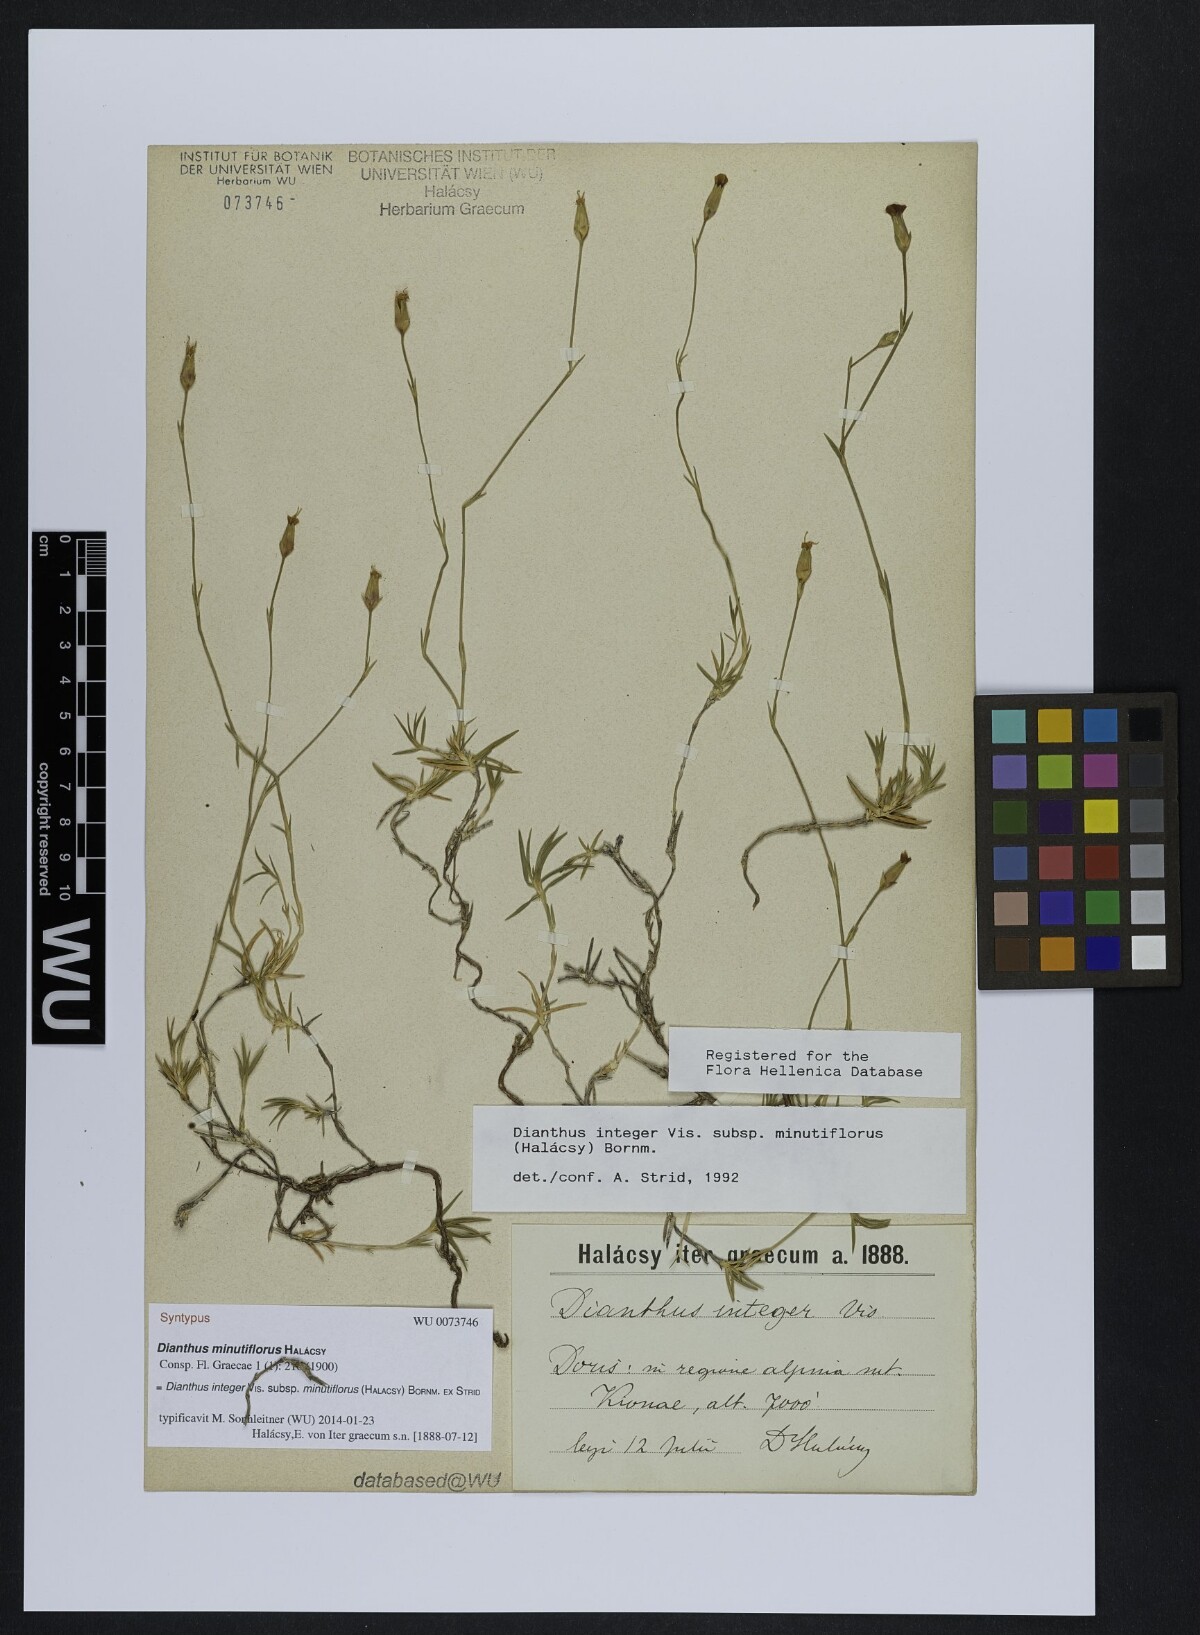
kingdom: Plantae
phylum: Tracheophyta
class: Magnoliopsida
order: Caryophyllales
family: Caryophyllaceae
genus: Dianthus
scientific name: Dianthus integer
